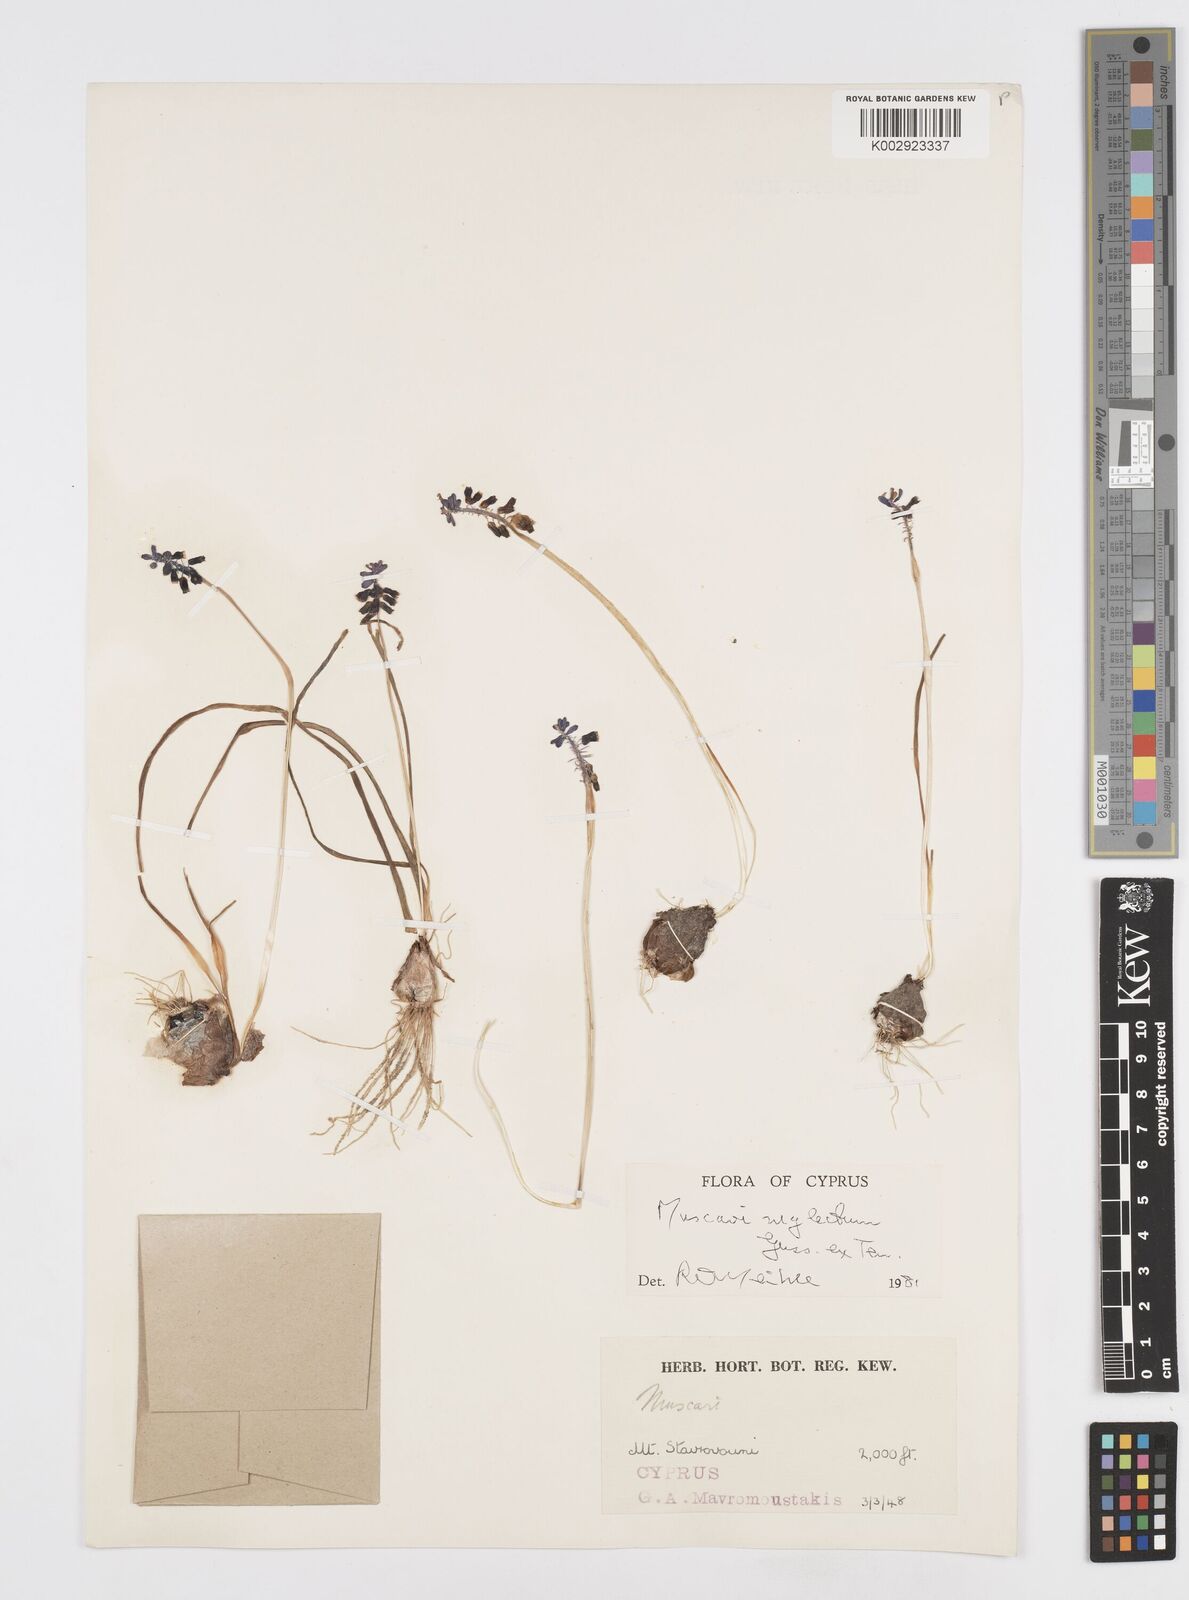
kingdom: Plantae
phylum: Tracheophyta
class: Liliopsida
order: Asparagales
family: Asparagaceae
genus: Muscari
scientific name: Muscari neglectum
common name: Grape-hyacinth
